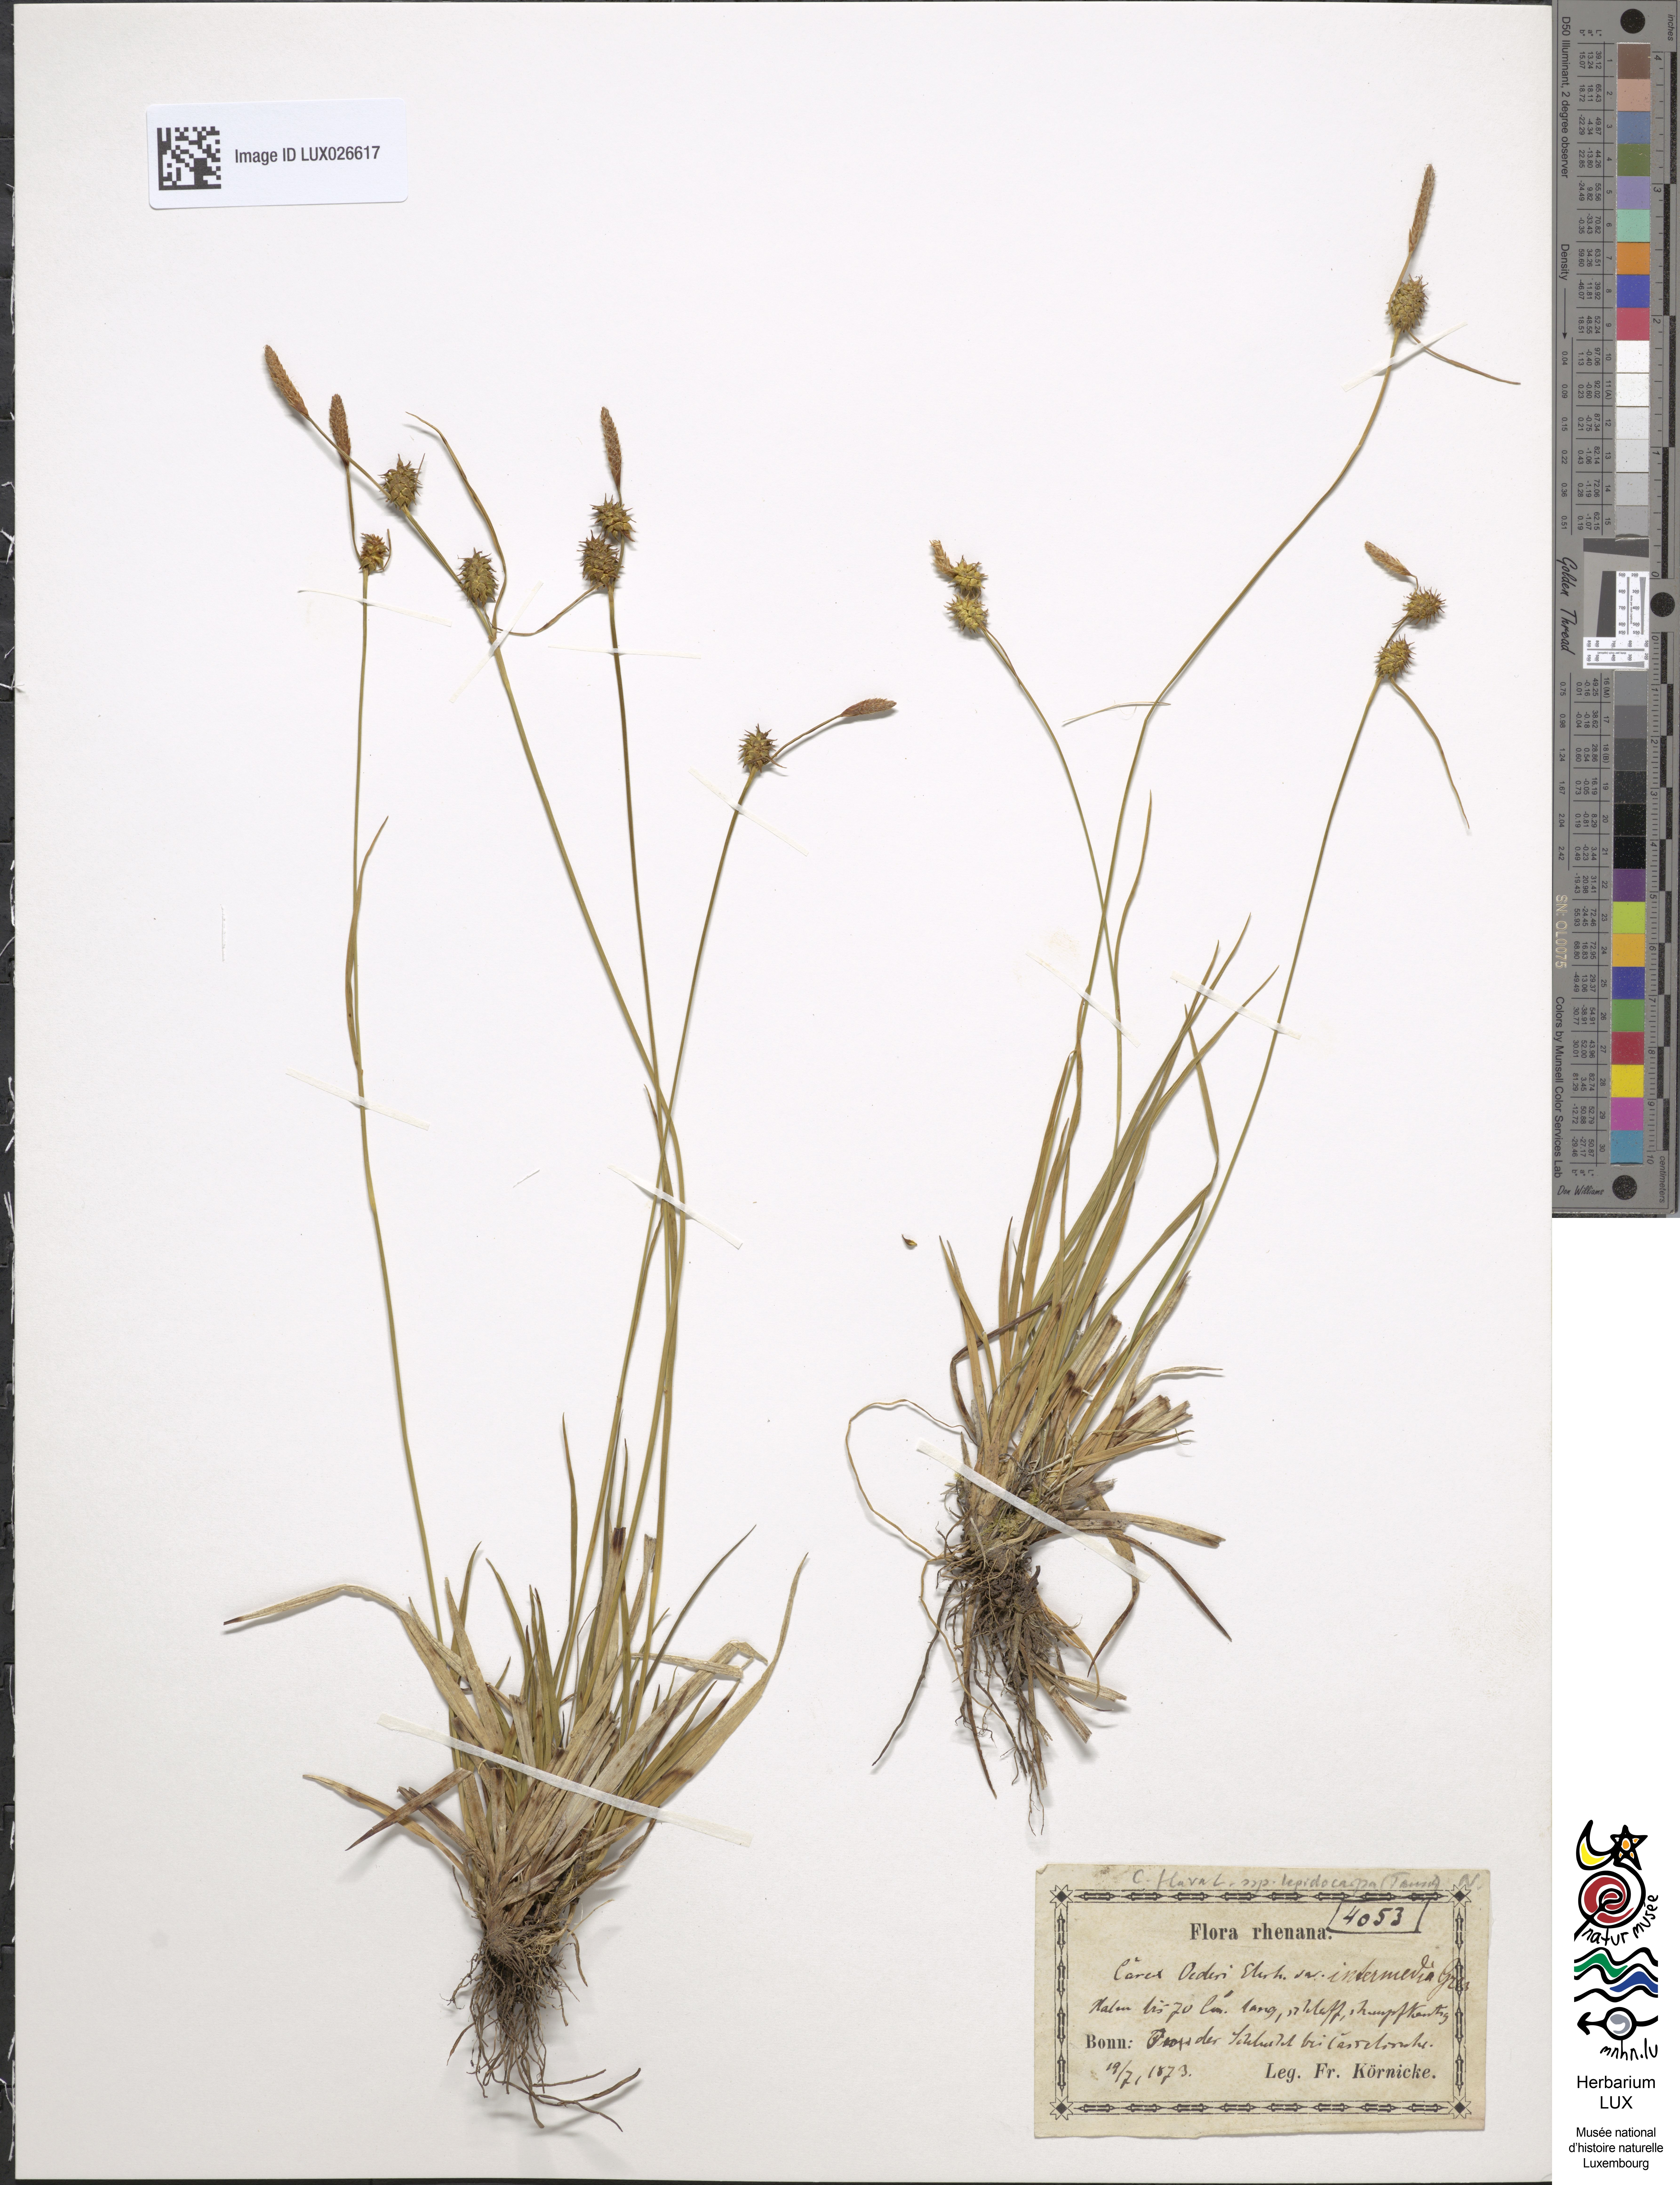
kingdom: Plantae
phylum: Tracheophyta
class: Liliopsida
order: Poales
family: Cyperaceae
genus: Carex
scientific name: Carex lepidocarpa
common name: Long-stalked yellow-sedge
